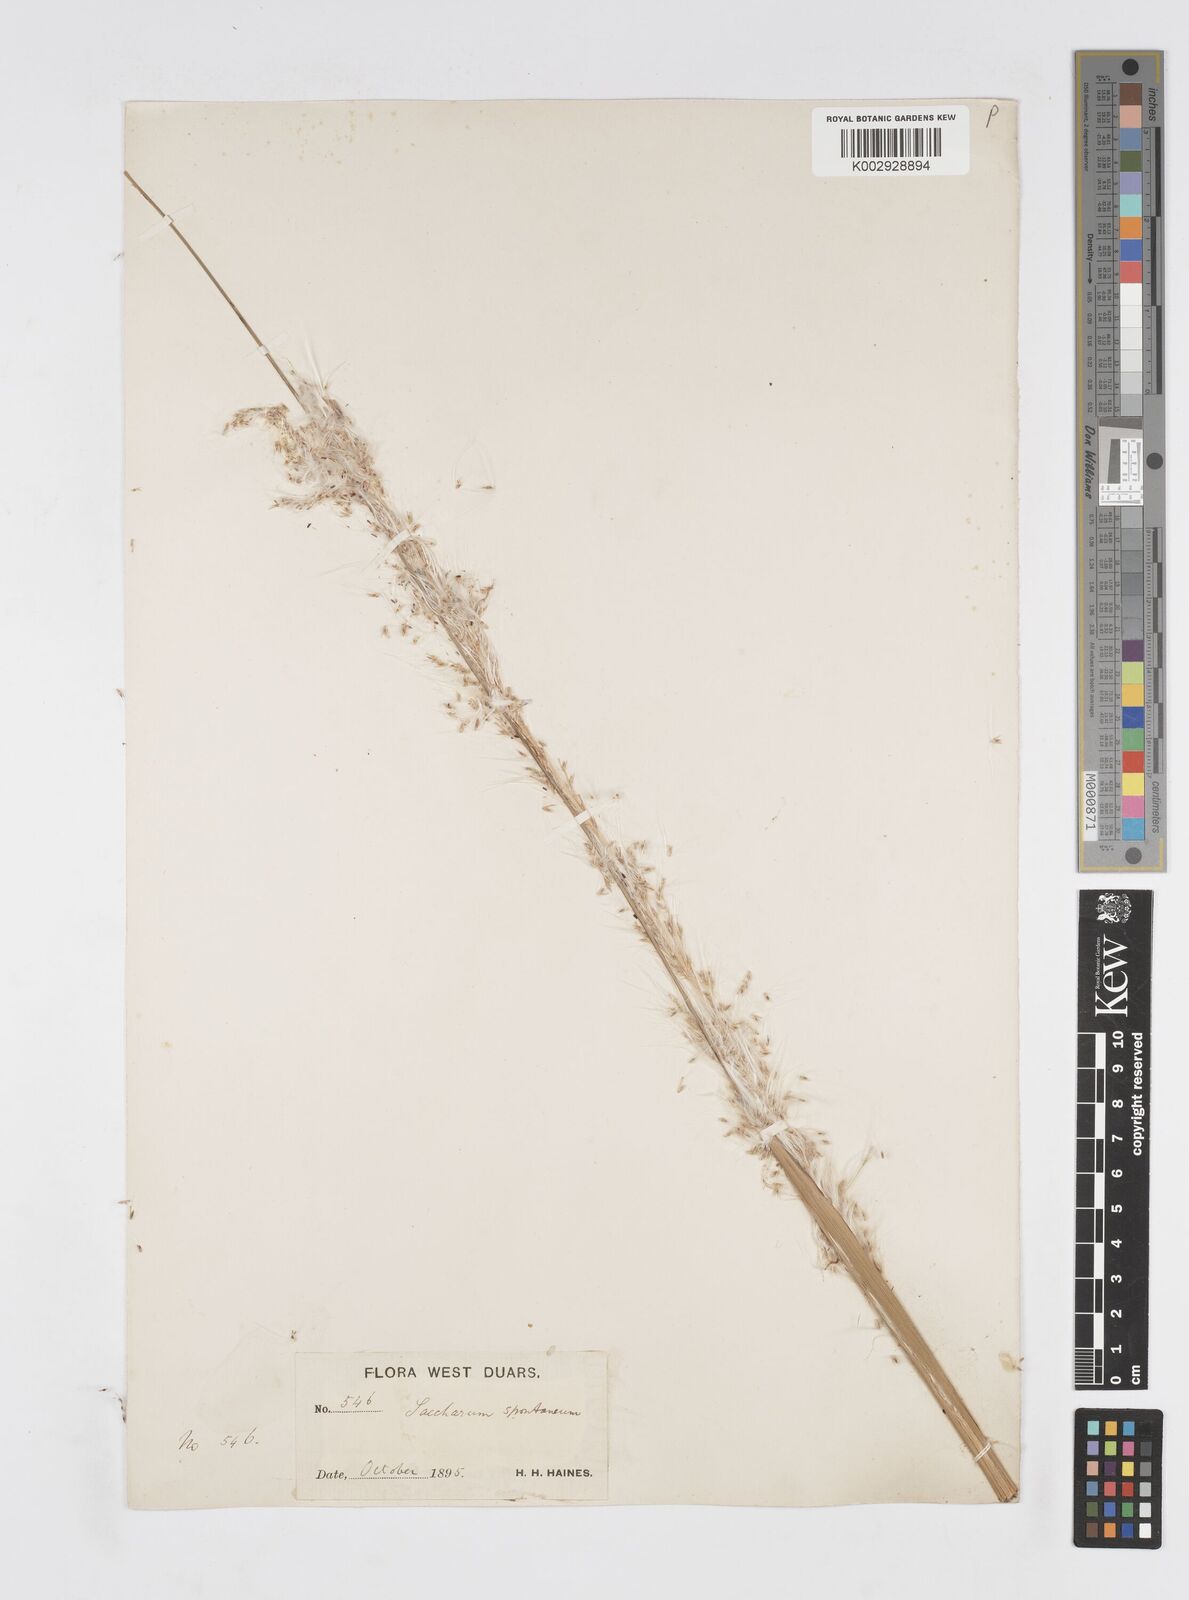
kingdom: Plantae
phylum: Tracheophyta
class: Liliopsida
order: Poales
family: Poaceae
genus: Saccharum
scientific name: Saccharum spontaneum
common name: Wild sugarcane
